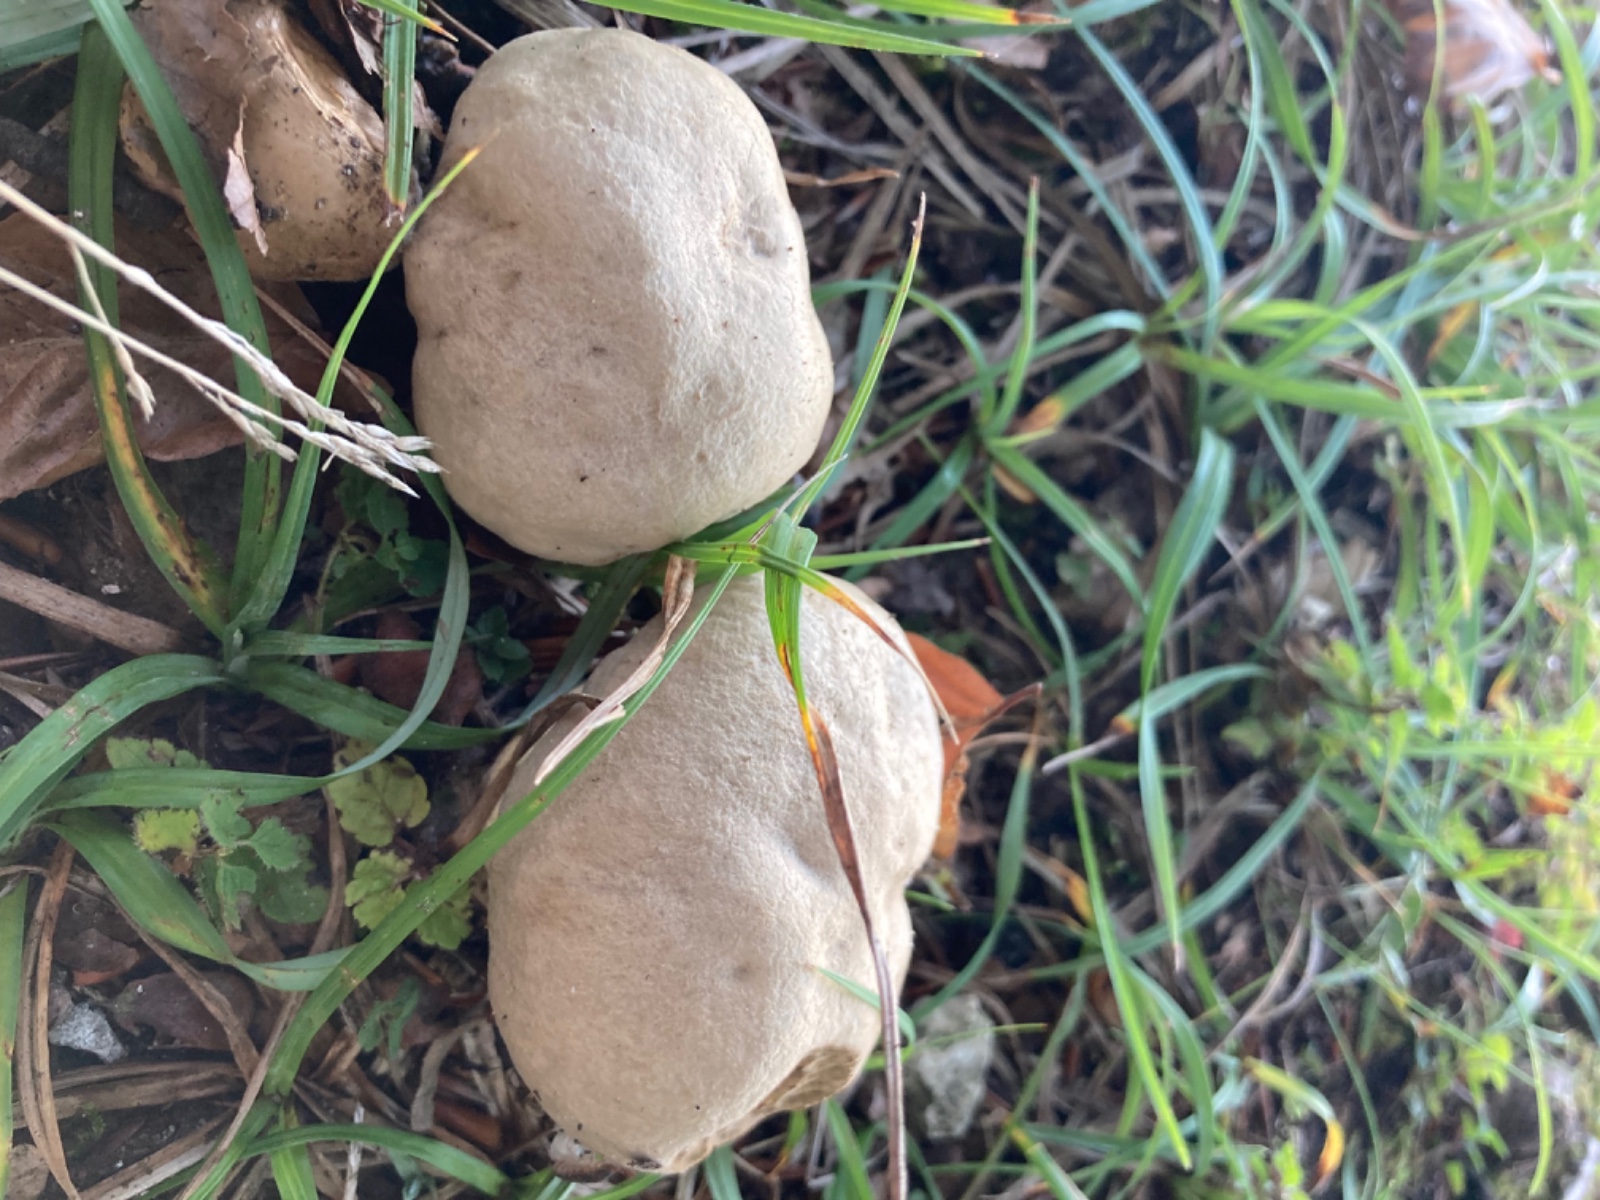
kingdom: Fungi
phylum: Basidiomycota
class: Agaricomycetes
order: Boletales
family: Boletaceae
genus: Caloboletus
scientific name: Caloboletus radicans
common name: rod-rørhat
